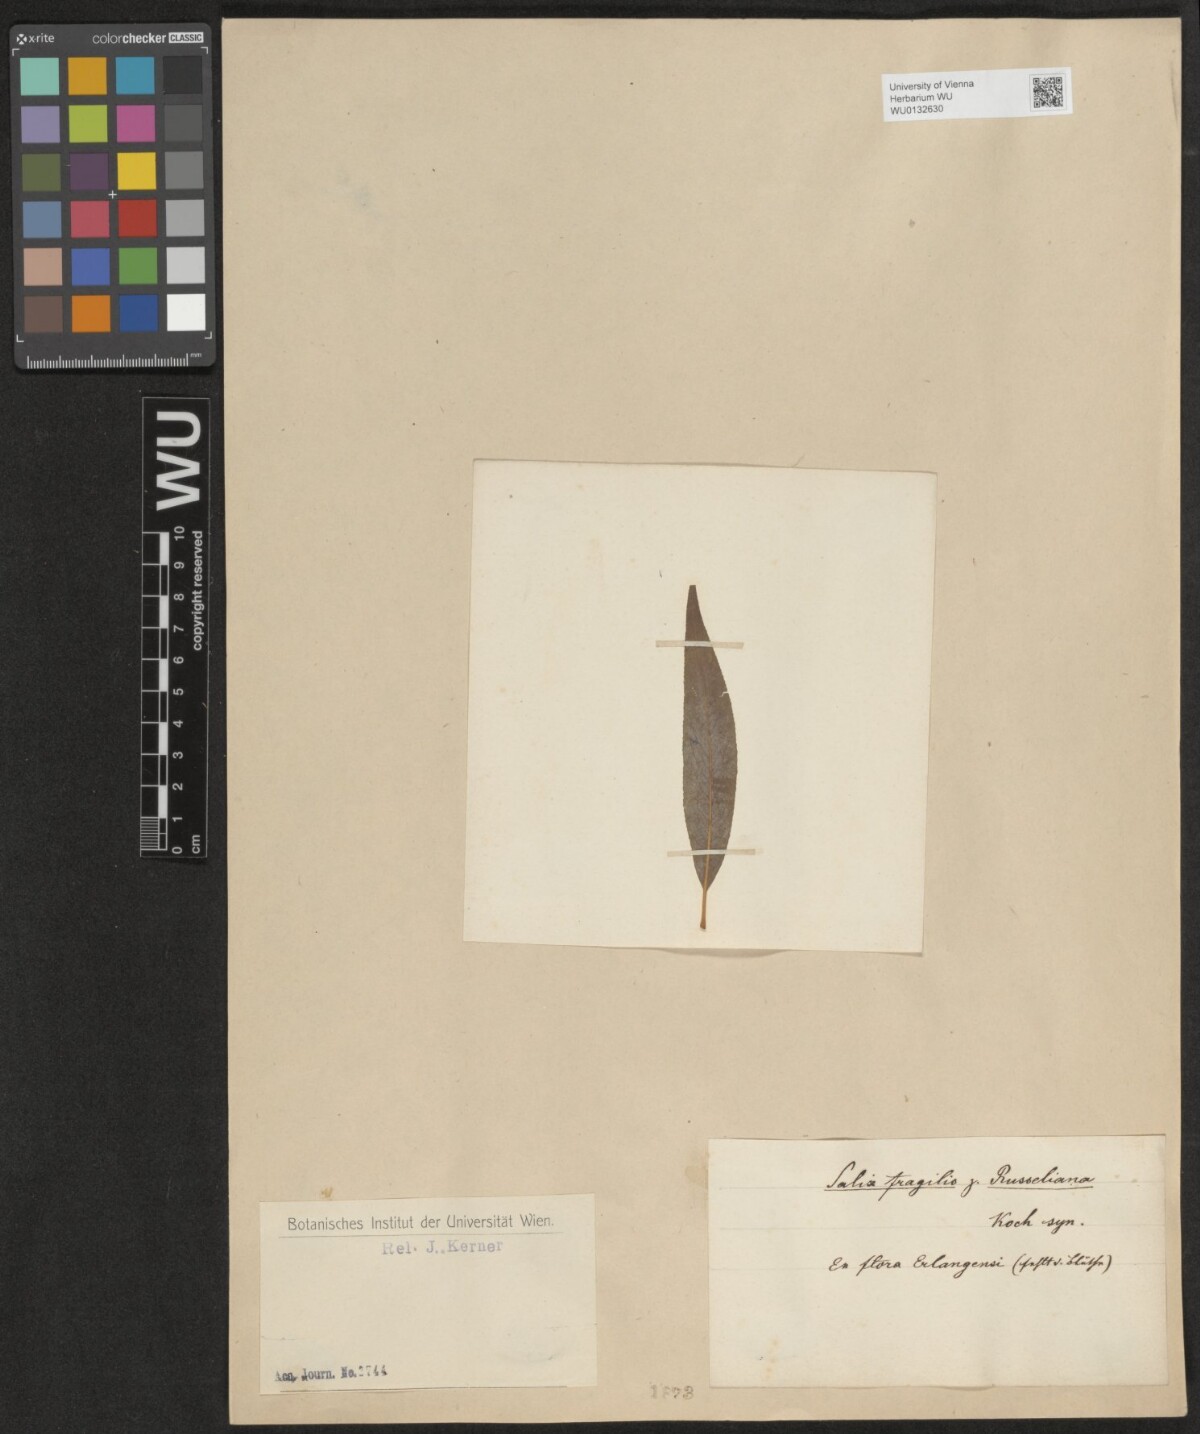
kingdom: Plantae
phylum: Tracheophyta
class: Magnoliopsida
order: Malpighiales
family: Salicaceae
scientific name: Salicaceae
